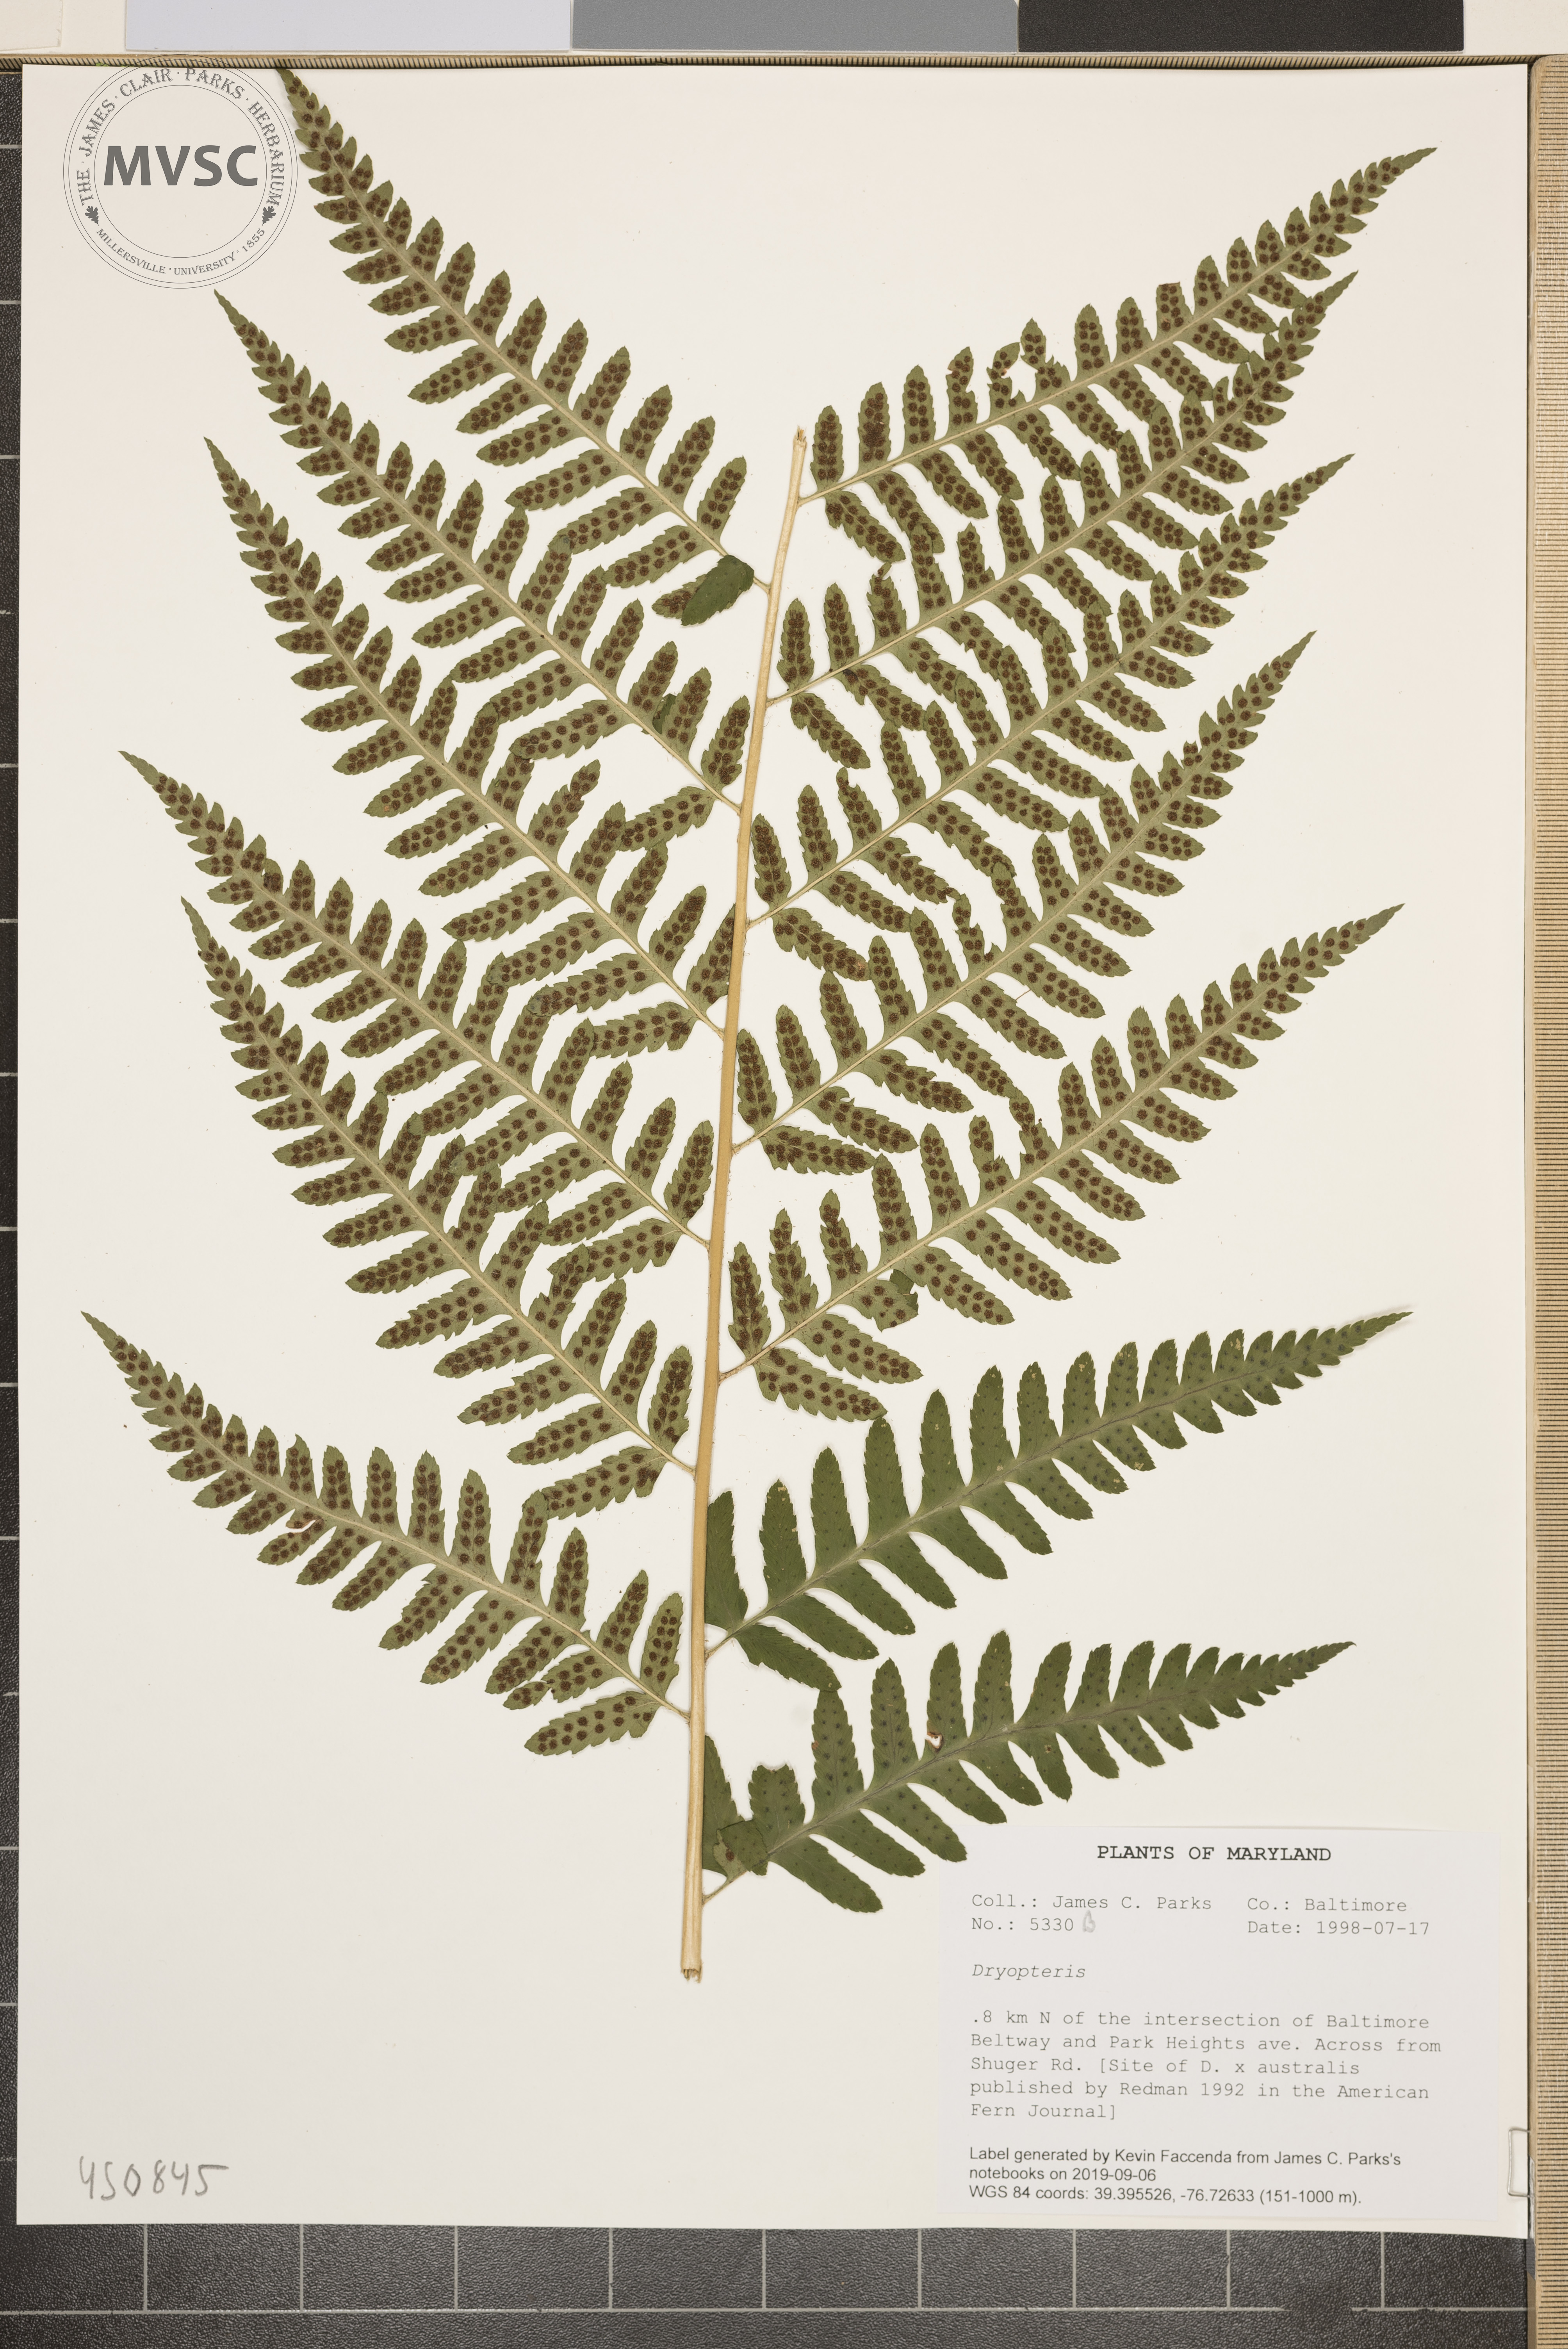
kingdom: Plantae
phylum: Tracheophyta
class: Polypodiopsida
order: Polypodiales
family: Dryopteridaceae
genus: Dryopteris
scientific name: Dryopteris celsa
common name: Log fern
